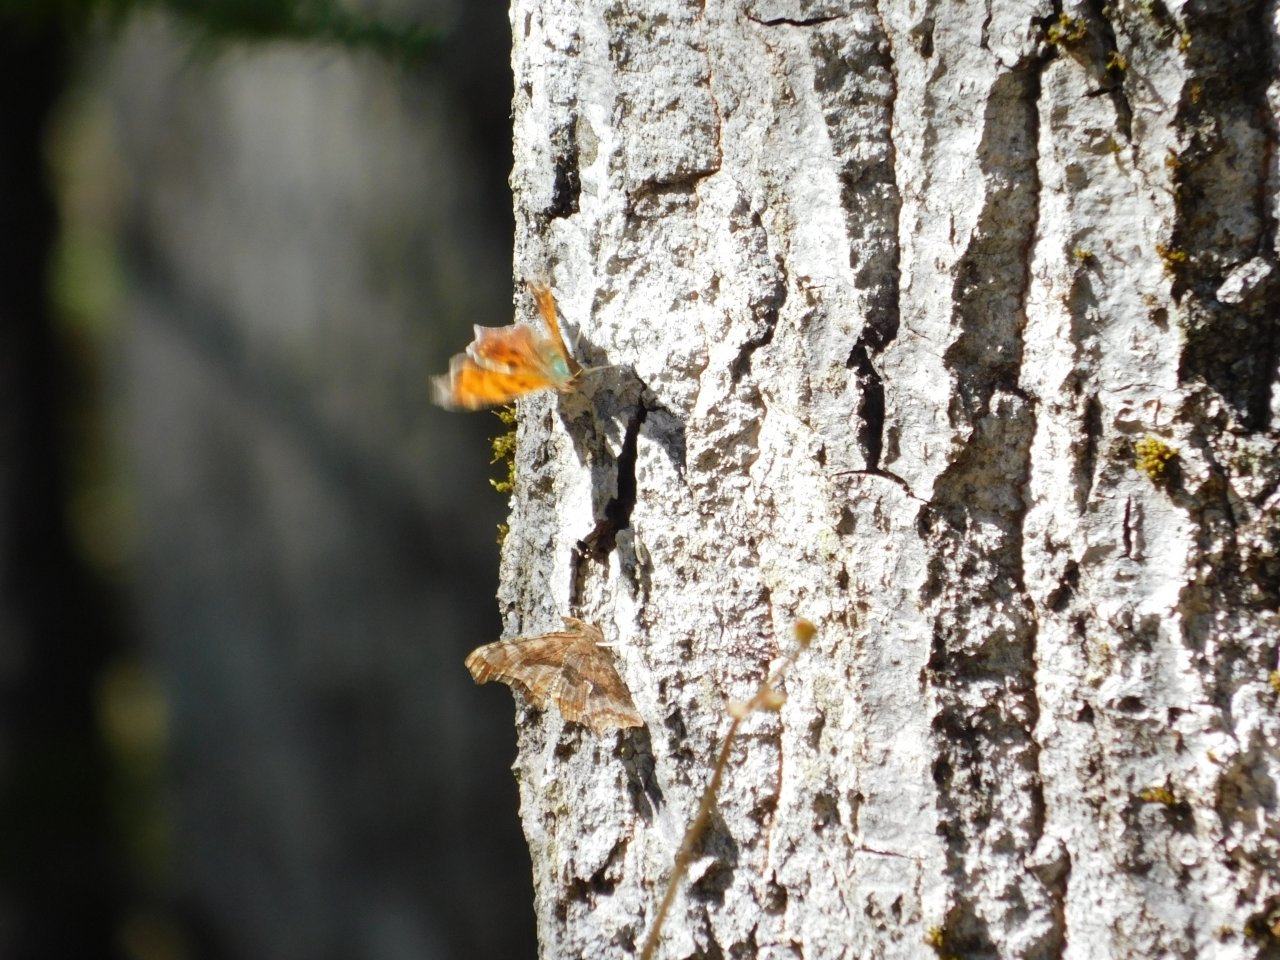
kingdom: Animalia
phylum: Arthropoda
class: Insecta
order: Lepidoptera
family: Nymphalidae
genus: Polygonia
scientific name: Polygonia comma
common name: Eastern Comma
